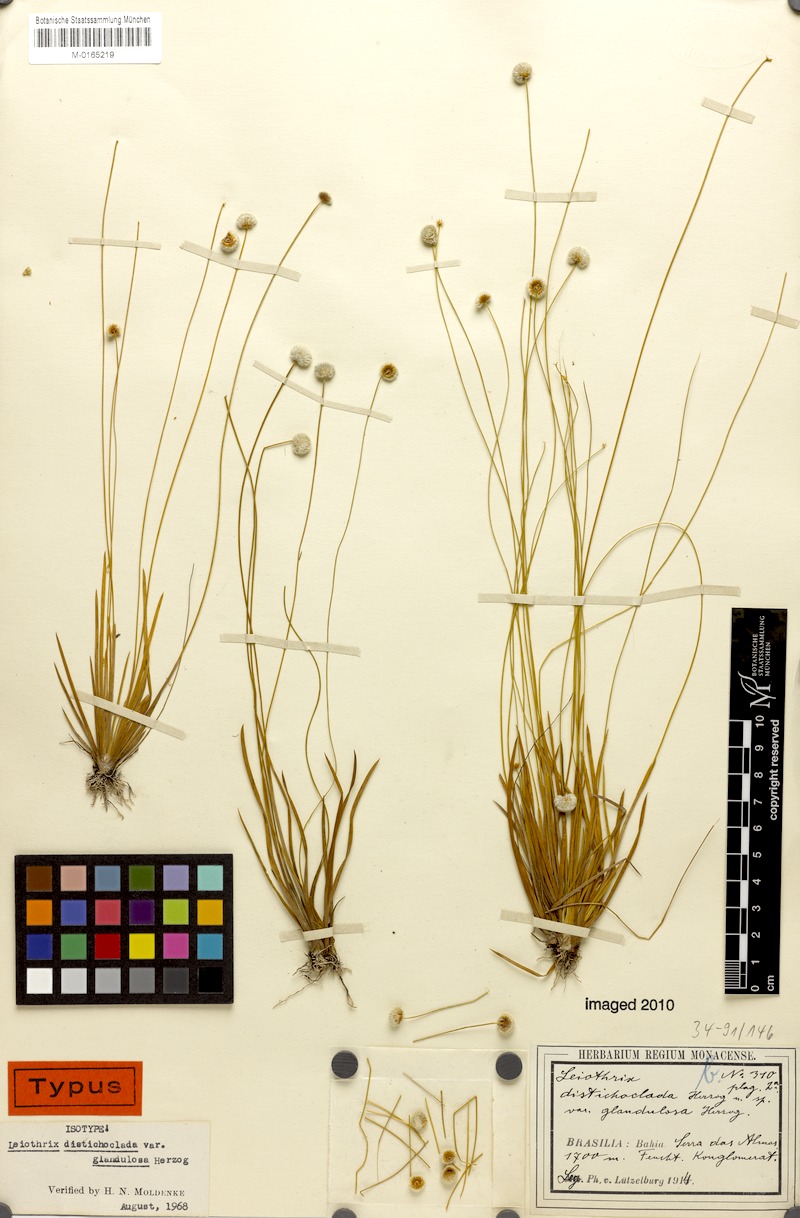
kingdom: Plantae
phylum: Tracheophyta
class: Liliopsida
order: Poales
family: Eriocaulaceae
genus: Leiothrix
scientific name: Leiothrix distichoclada
